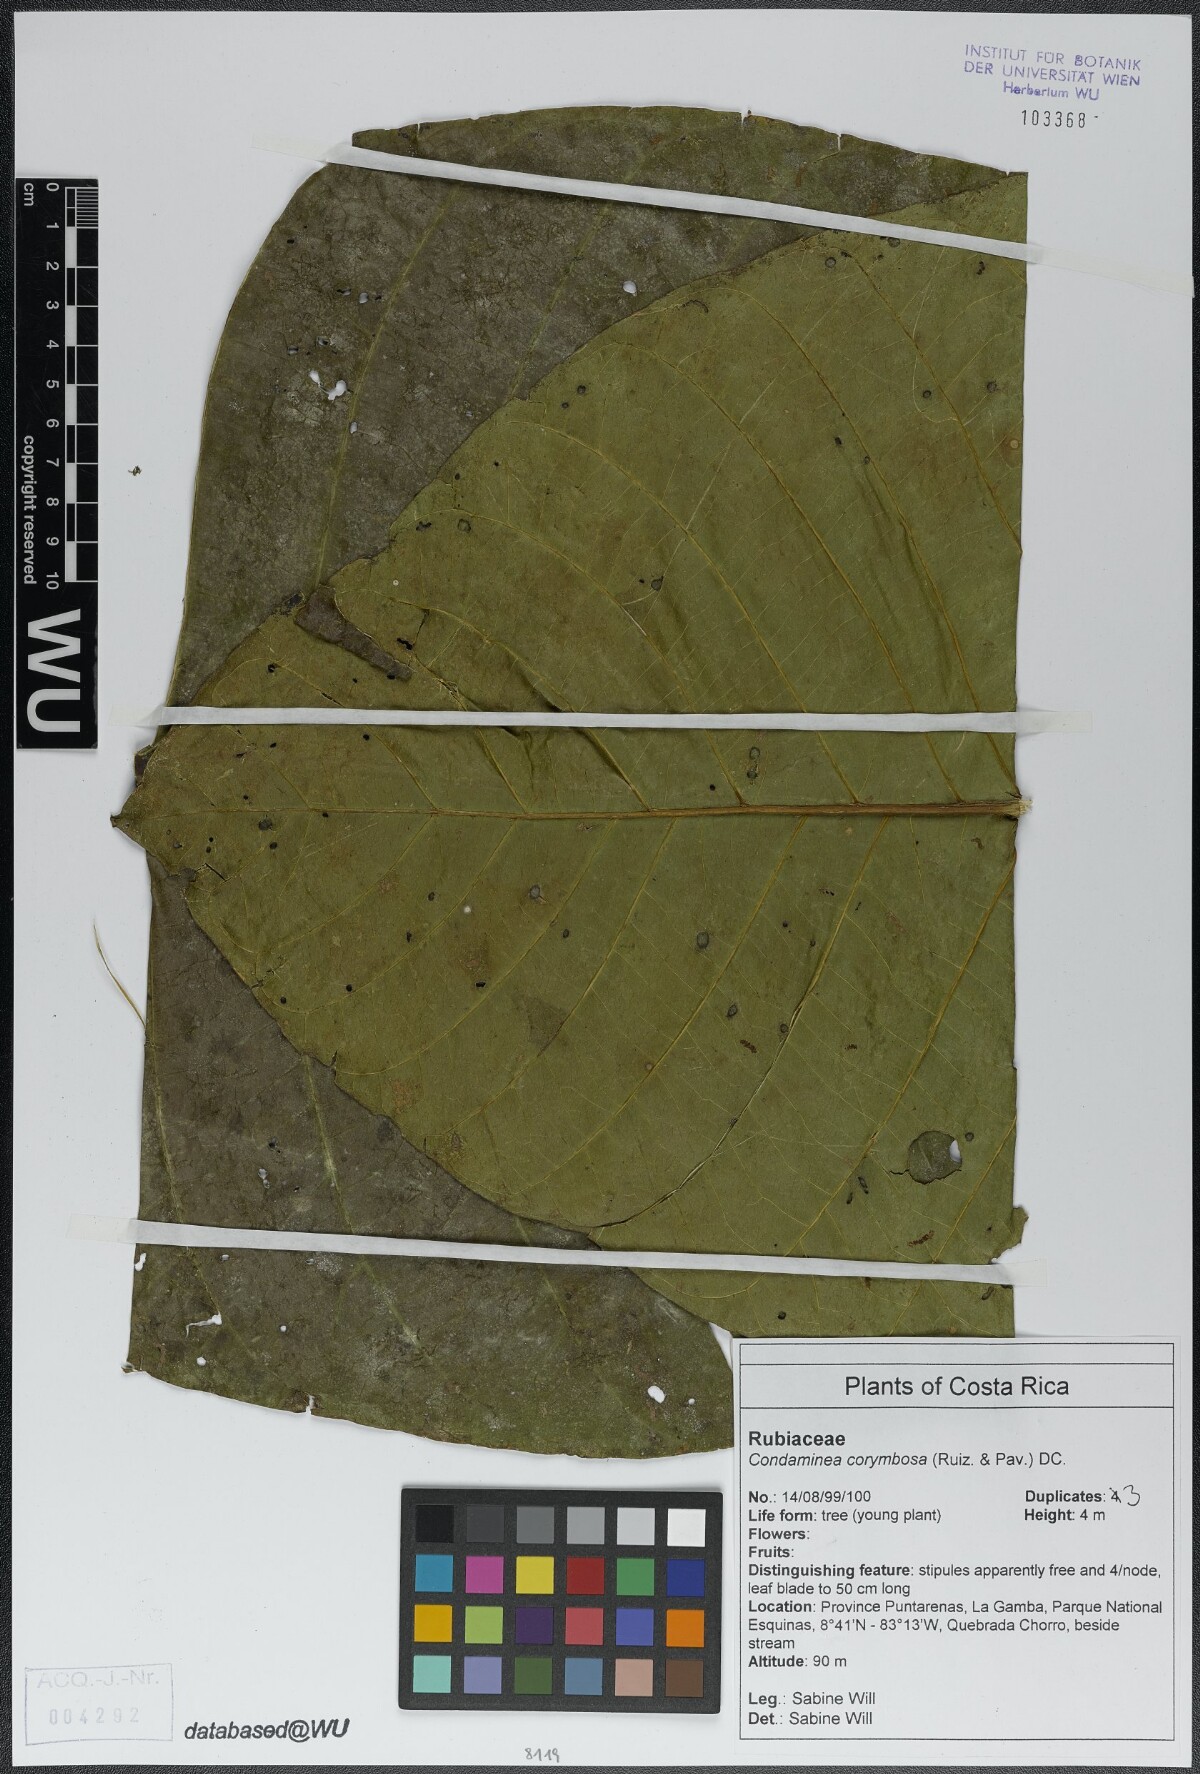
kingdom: Plantae
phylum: Tracheophyta
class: Magnoliopsida
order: Gentianales
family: Rubiaceae
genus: Condaminea
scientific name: Condaminea corymbosa
